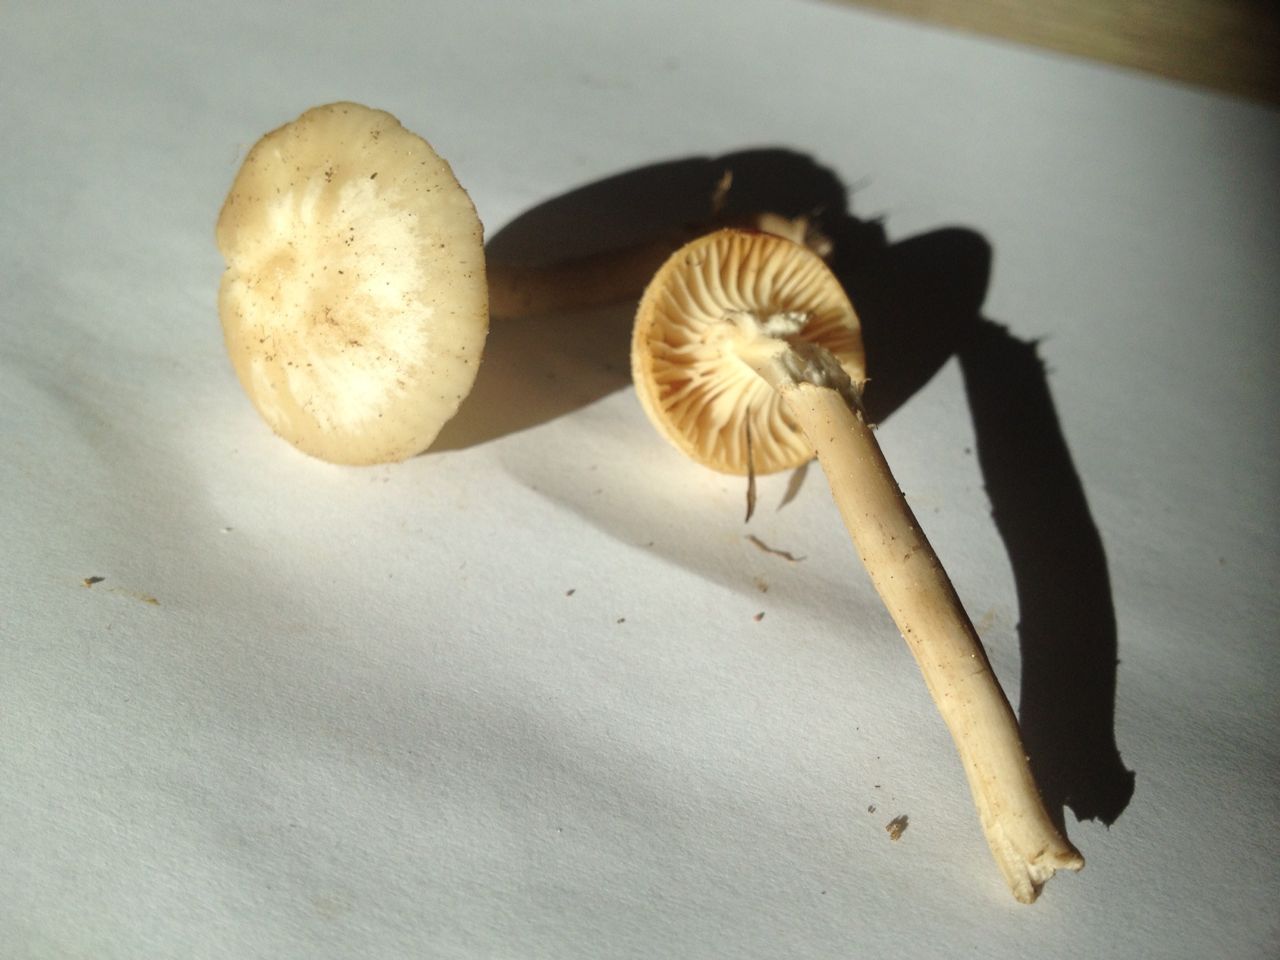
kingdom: Fungi
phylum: Basidiomycota
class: Agaricomycetes
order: Agaricales
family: Hygrophoraceae
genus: Cuphophyllus
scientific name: Cuphophyllus virgineus
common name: snehvid vokshat
